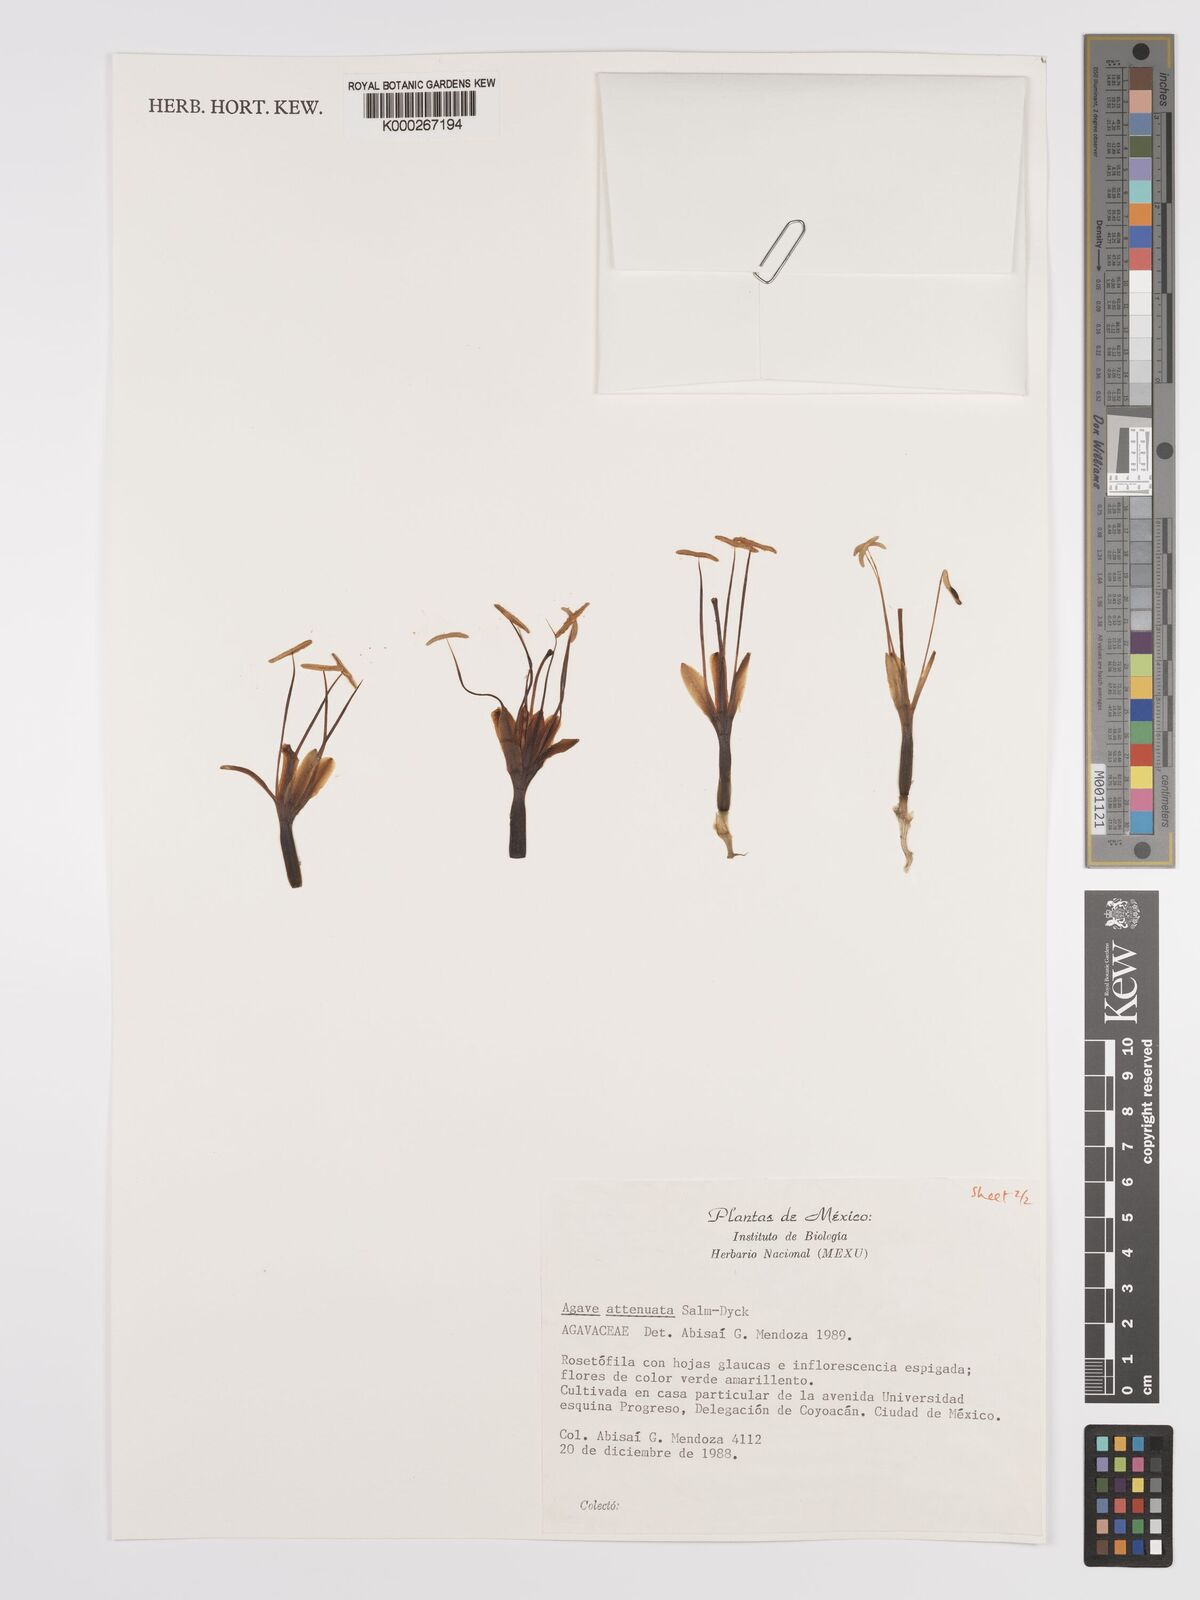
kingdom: Plantae
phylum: Tracheophyta
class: Liliopsida
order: Asparagales
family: Asparagaceae
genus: Agave
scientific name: Agave attenuata
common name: Fox tail agave
